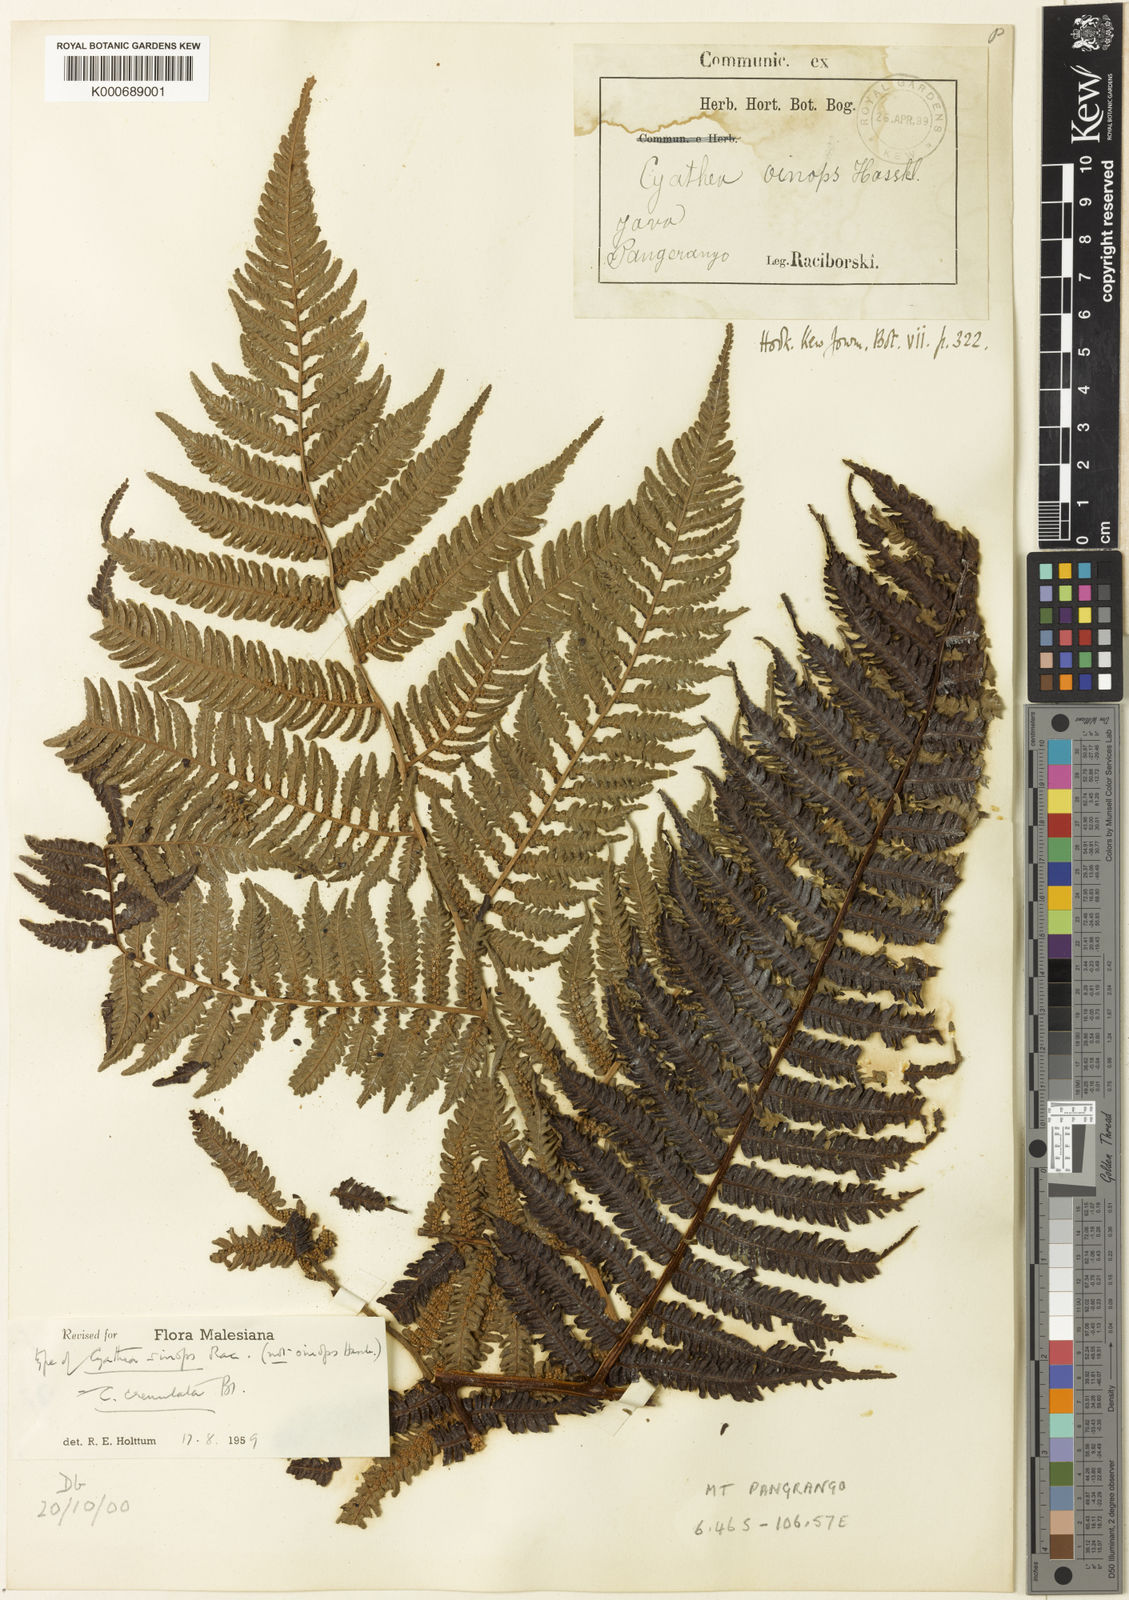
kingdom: Plantae
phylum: Tracheophyta
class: Polypodiopsida
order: Cyatheales
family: Cyatheaceae
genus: Alsophila
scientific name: Alsophila polycarpa
